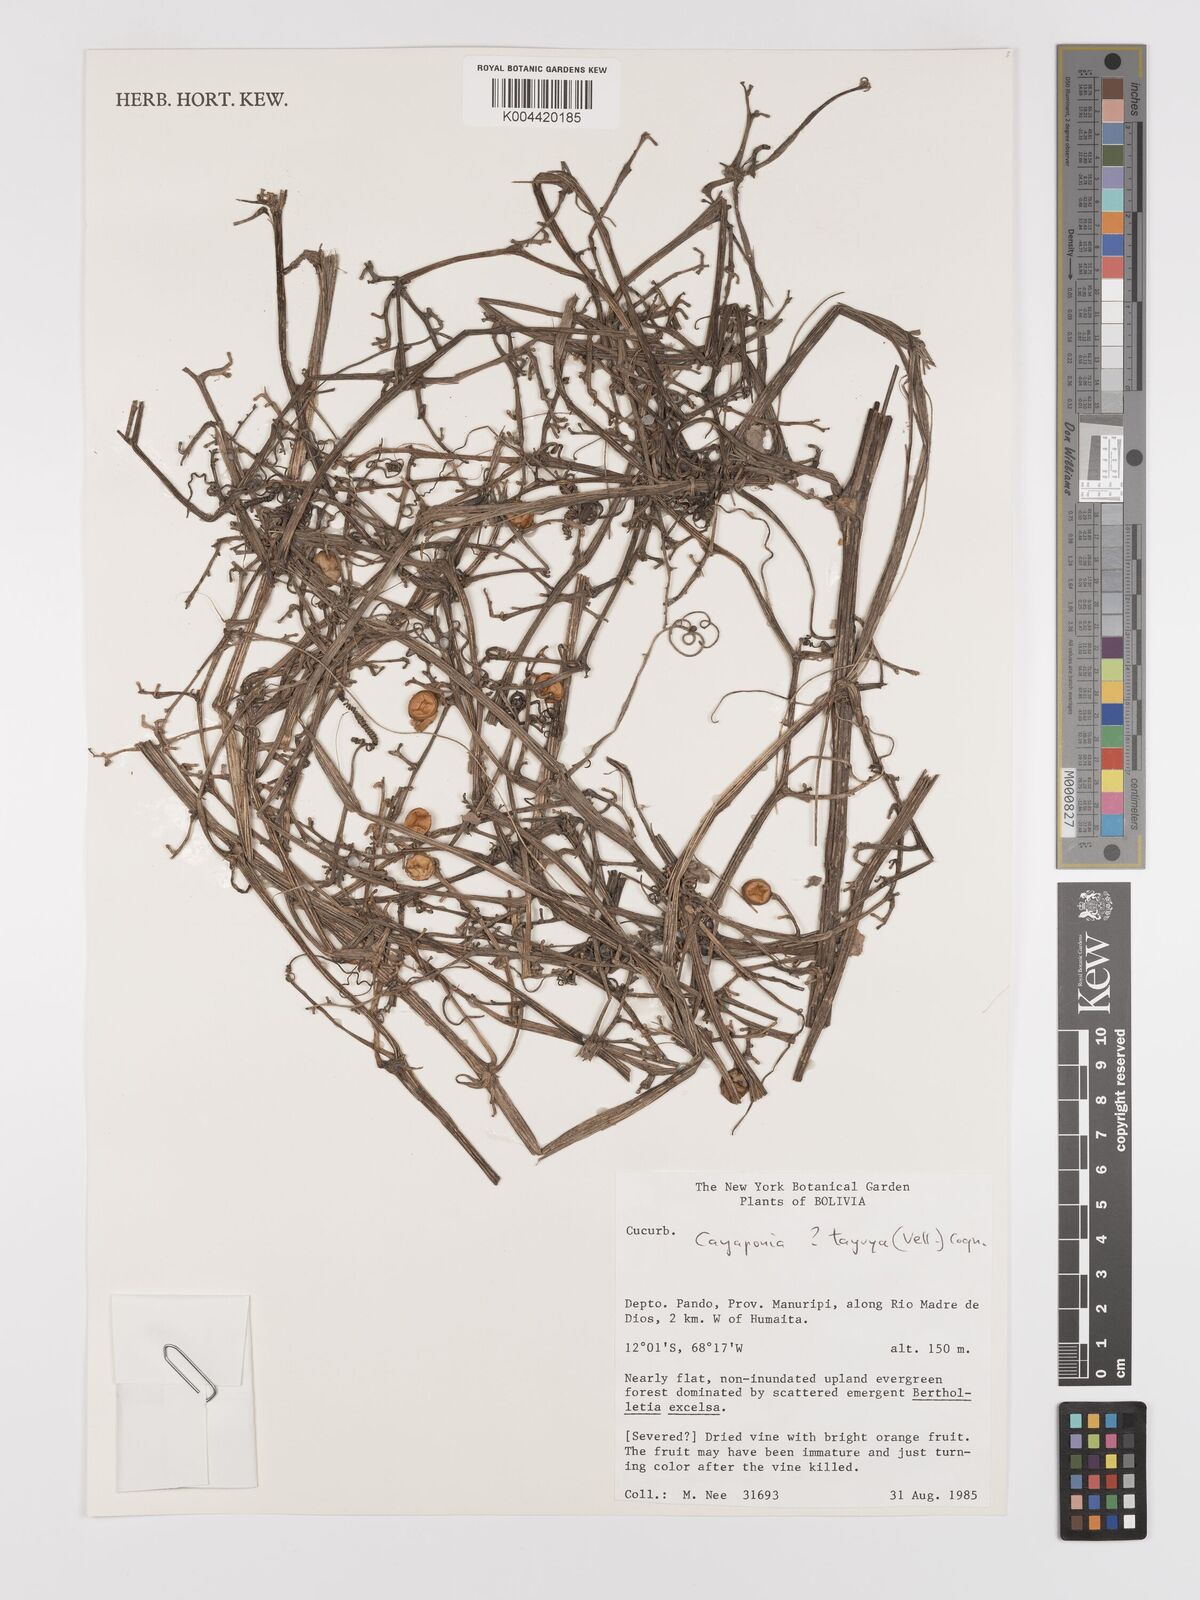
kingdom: Plantae
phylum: Tracheophyta
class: Magnoliopsida
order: Cucurbitales
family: Cucurbitaceae
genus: Cayaponia
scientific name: Cayaponia tayuya
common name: Tayuya
